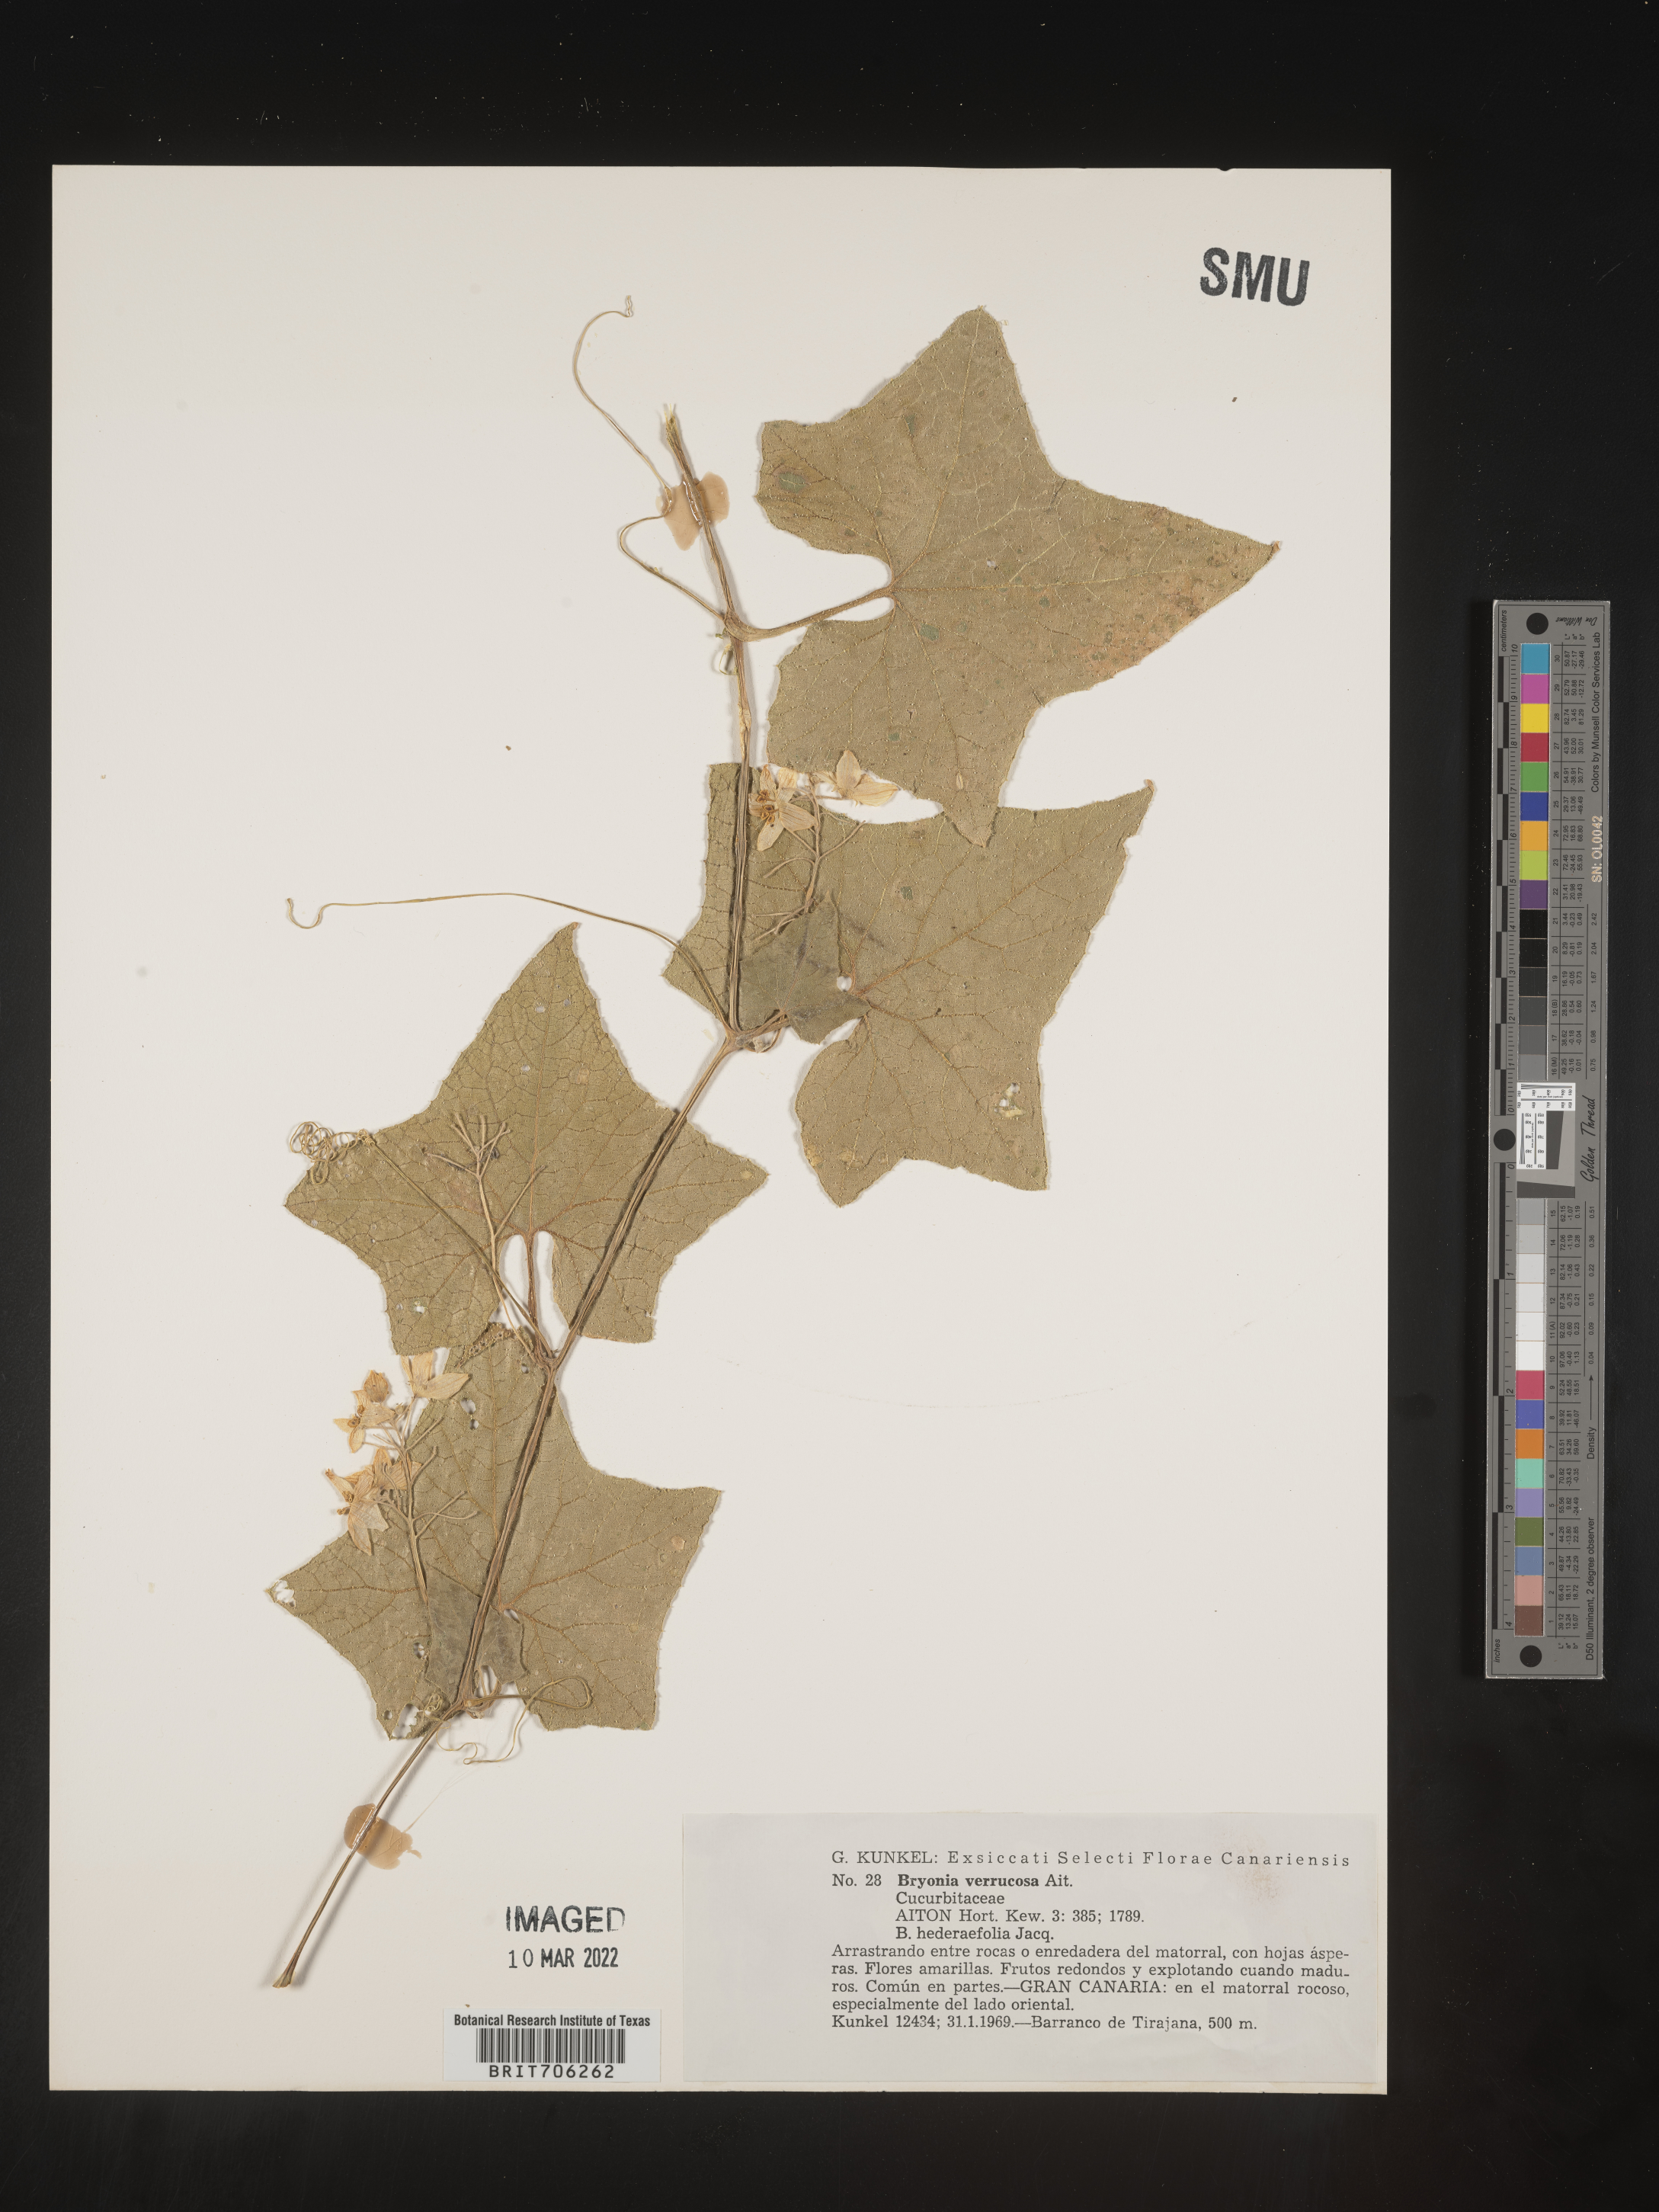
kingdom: Plantae
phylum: Tracheophyta
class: Magnoliopsida
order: Cucurbitales
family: Cucurbitaceae
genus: Bryonia
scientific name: Bryonia
